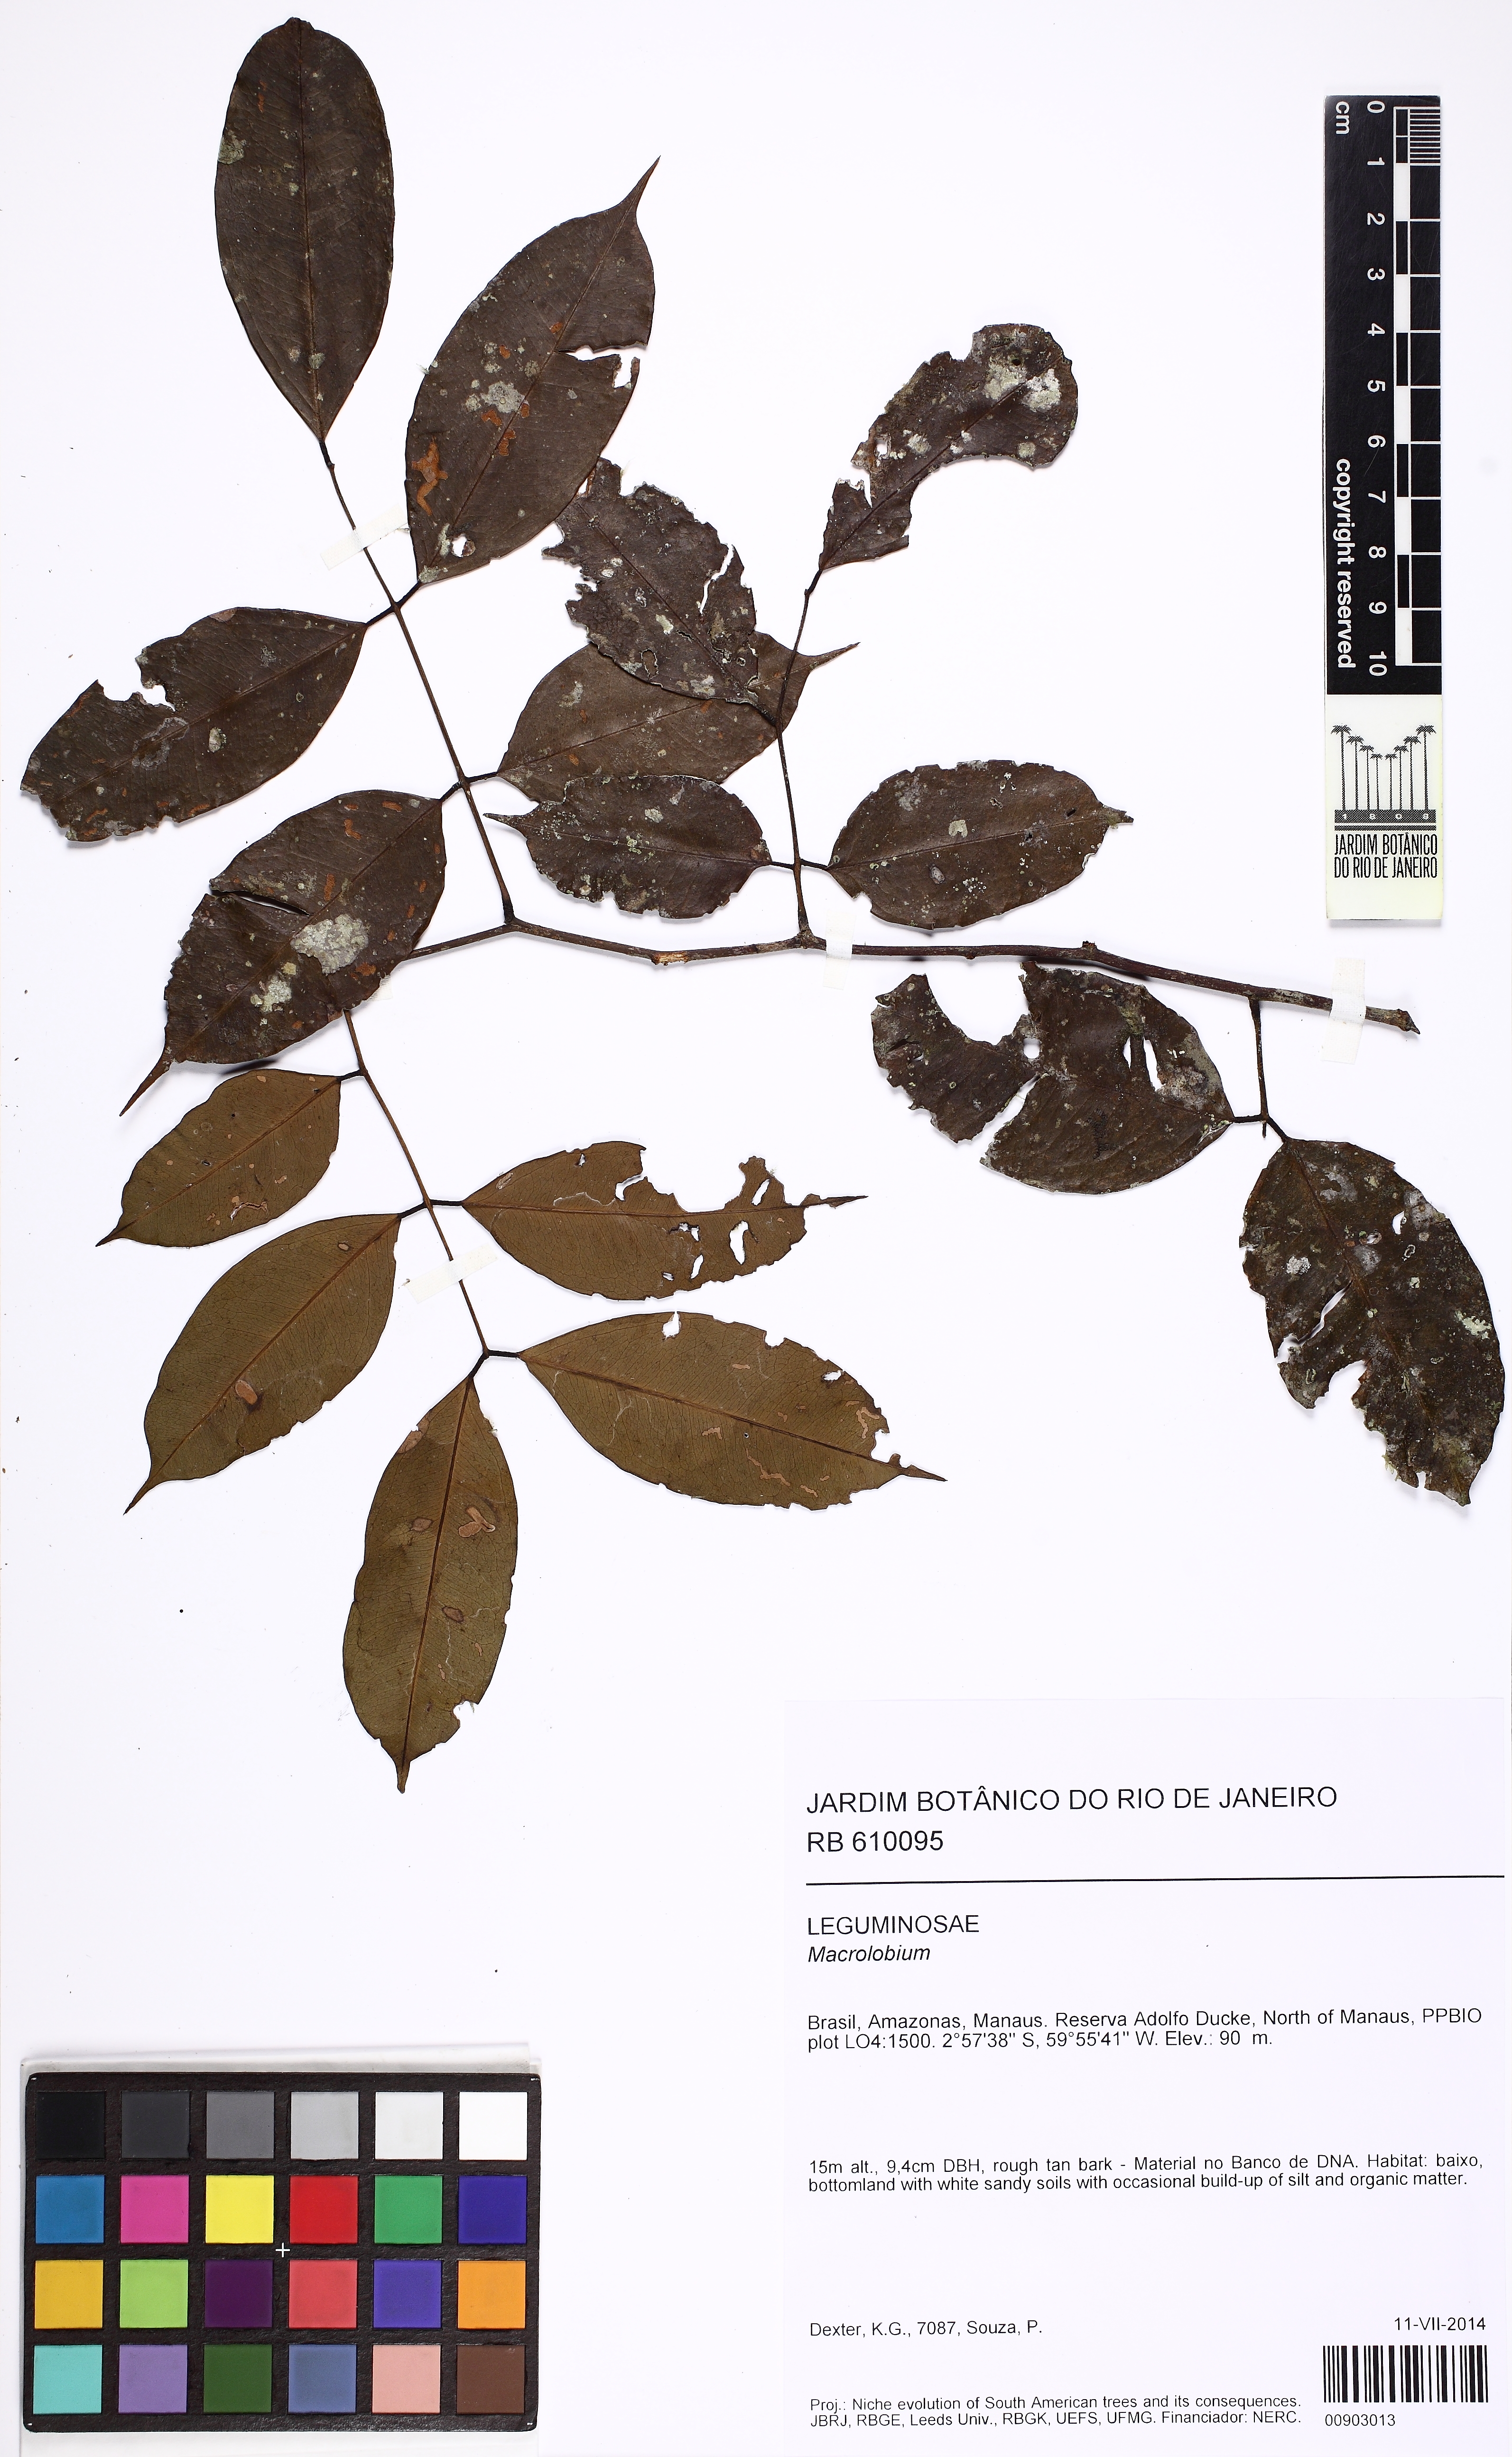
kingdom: Plantae
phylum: Tracheophyta
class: Magnoliopsida
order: Fabales
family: Fabaceae
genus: Macrolobium
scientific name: Macrolobium
